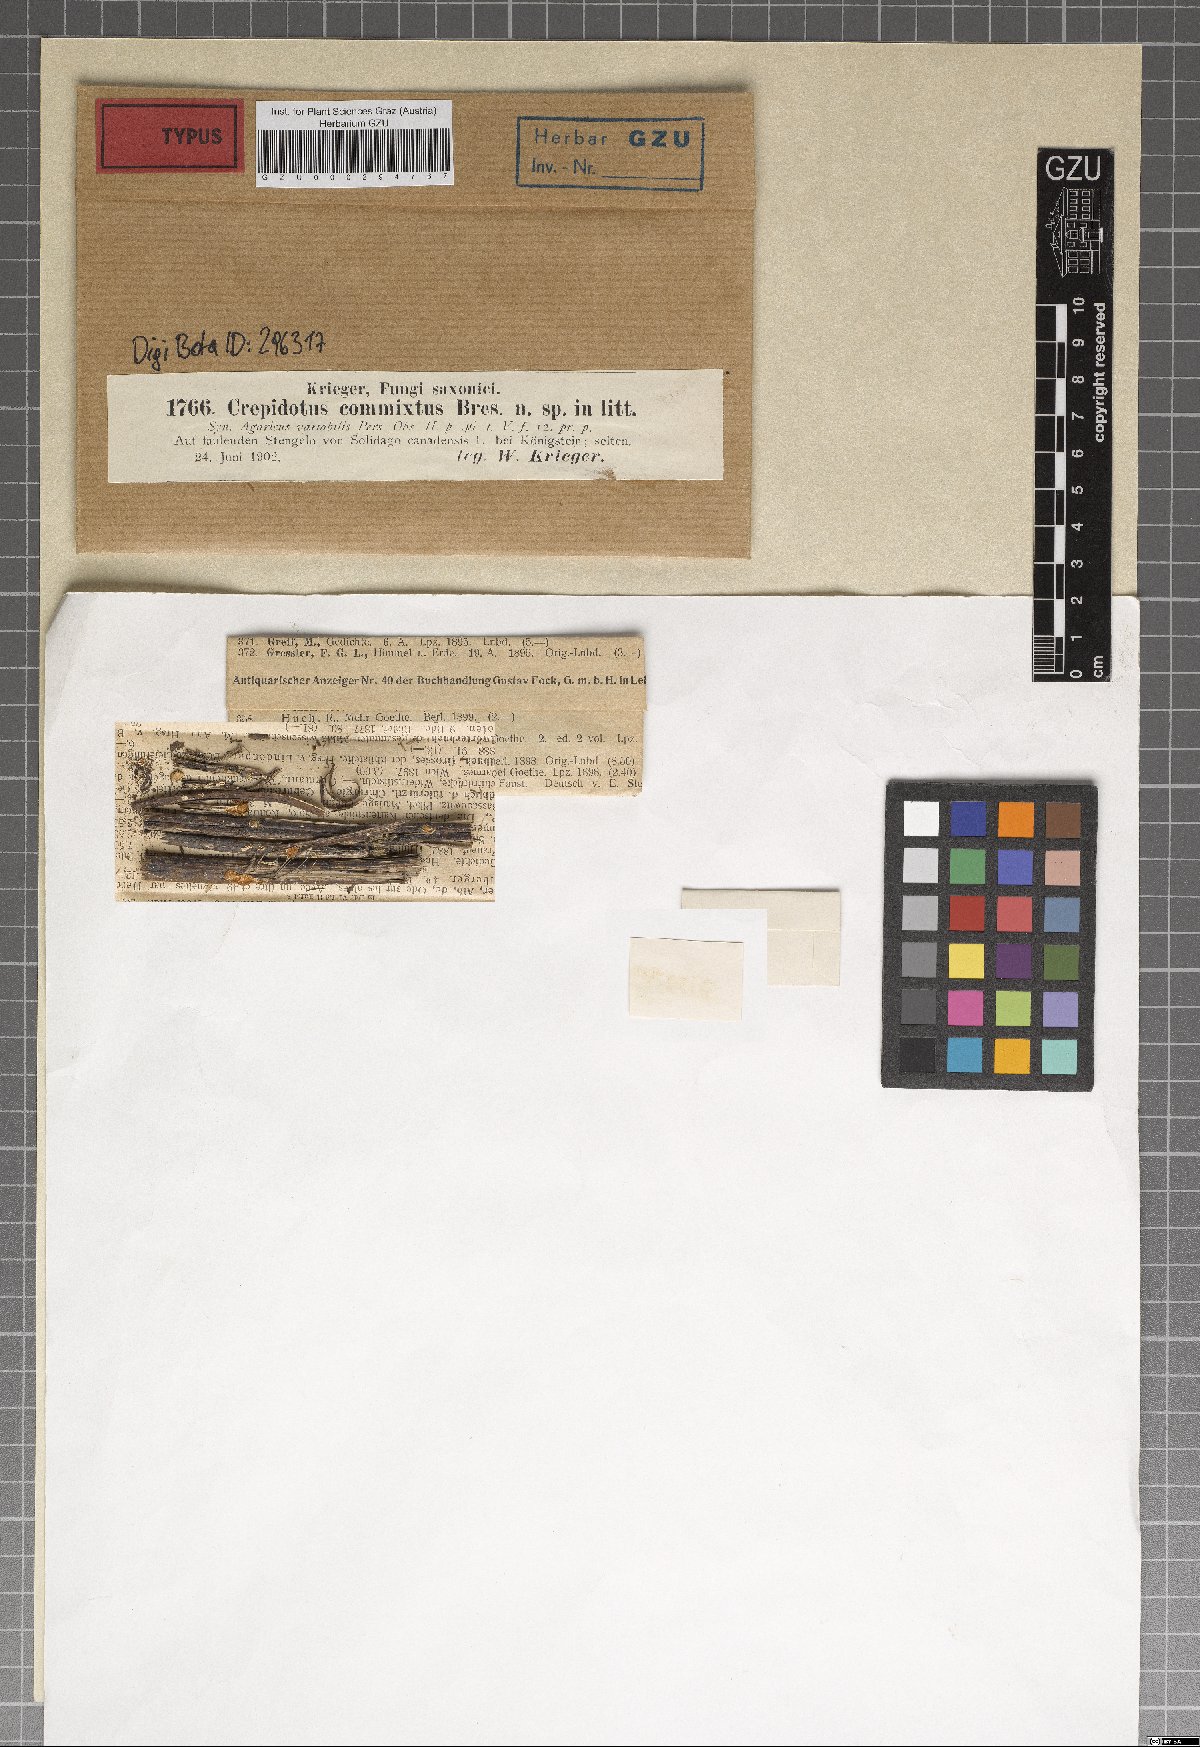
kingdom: Fungi
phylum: Basidiomycota
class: Agaricomycetes
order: Agaricales
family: Crepidotaceae
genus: Crepidotus
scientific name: Crepidotus epibryus
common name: Grass oysterling
